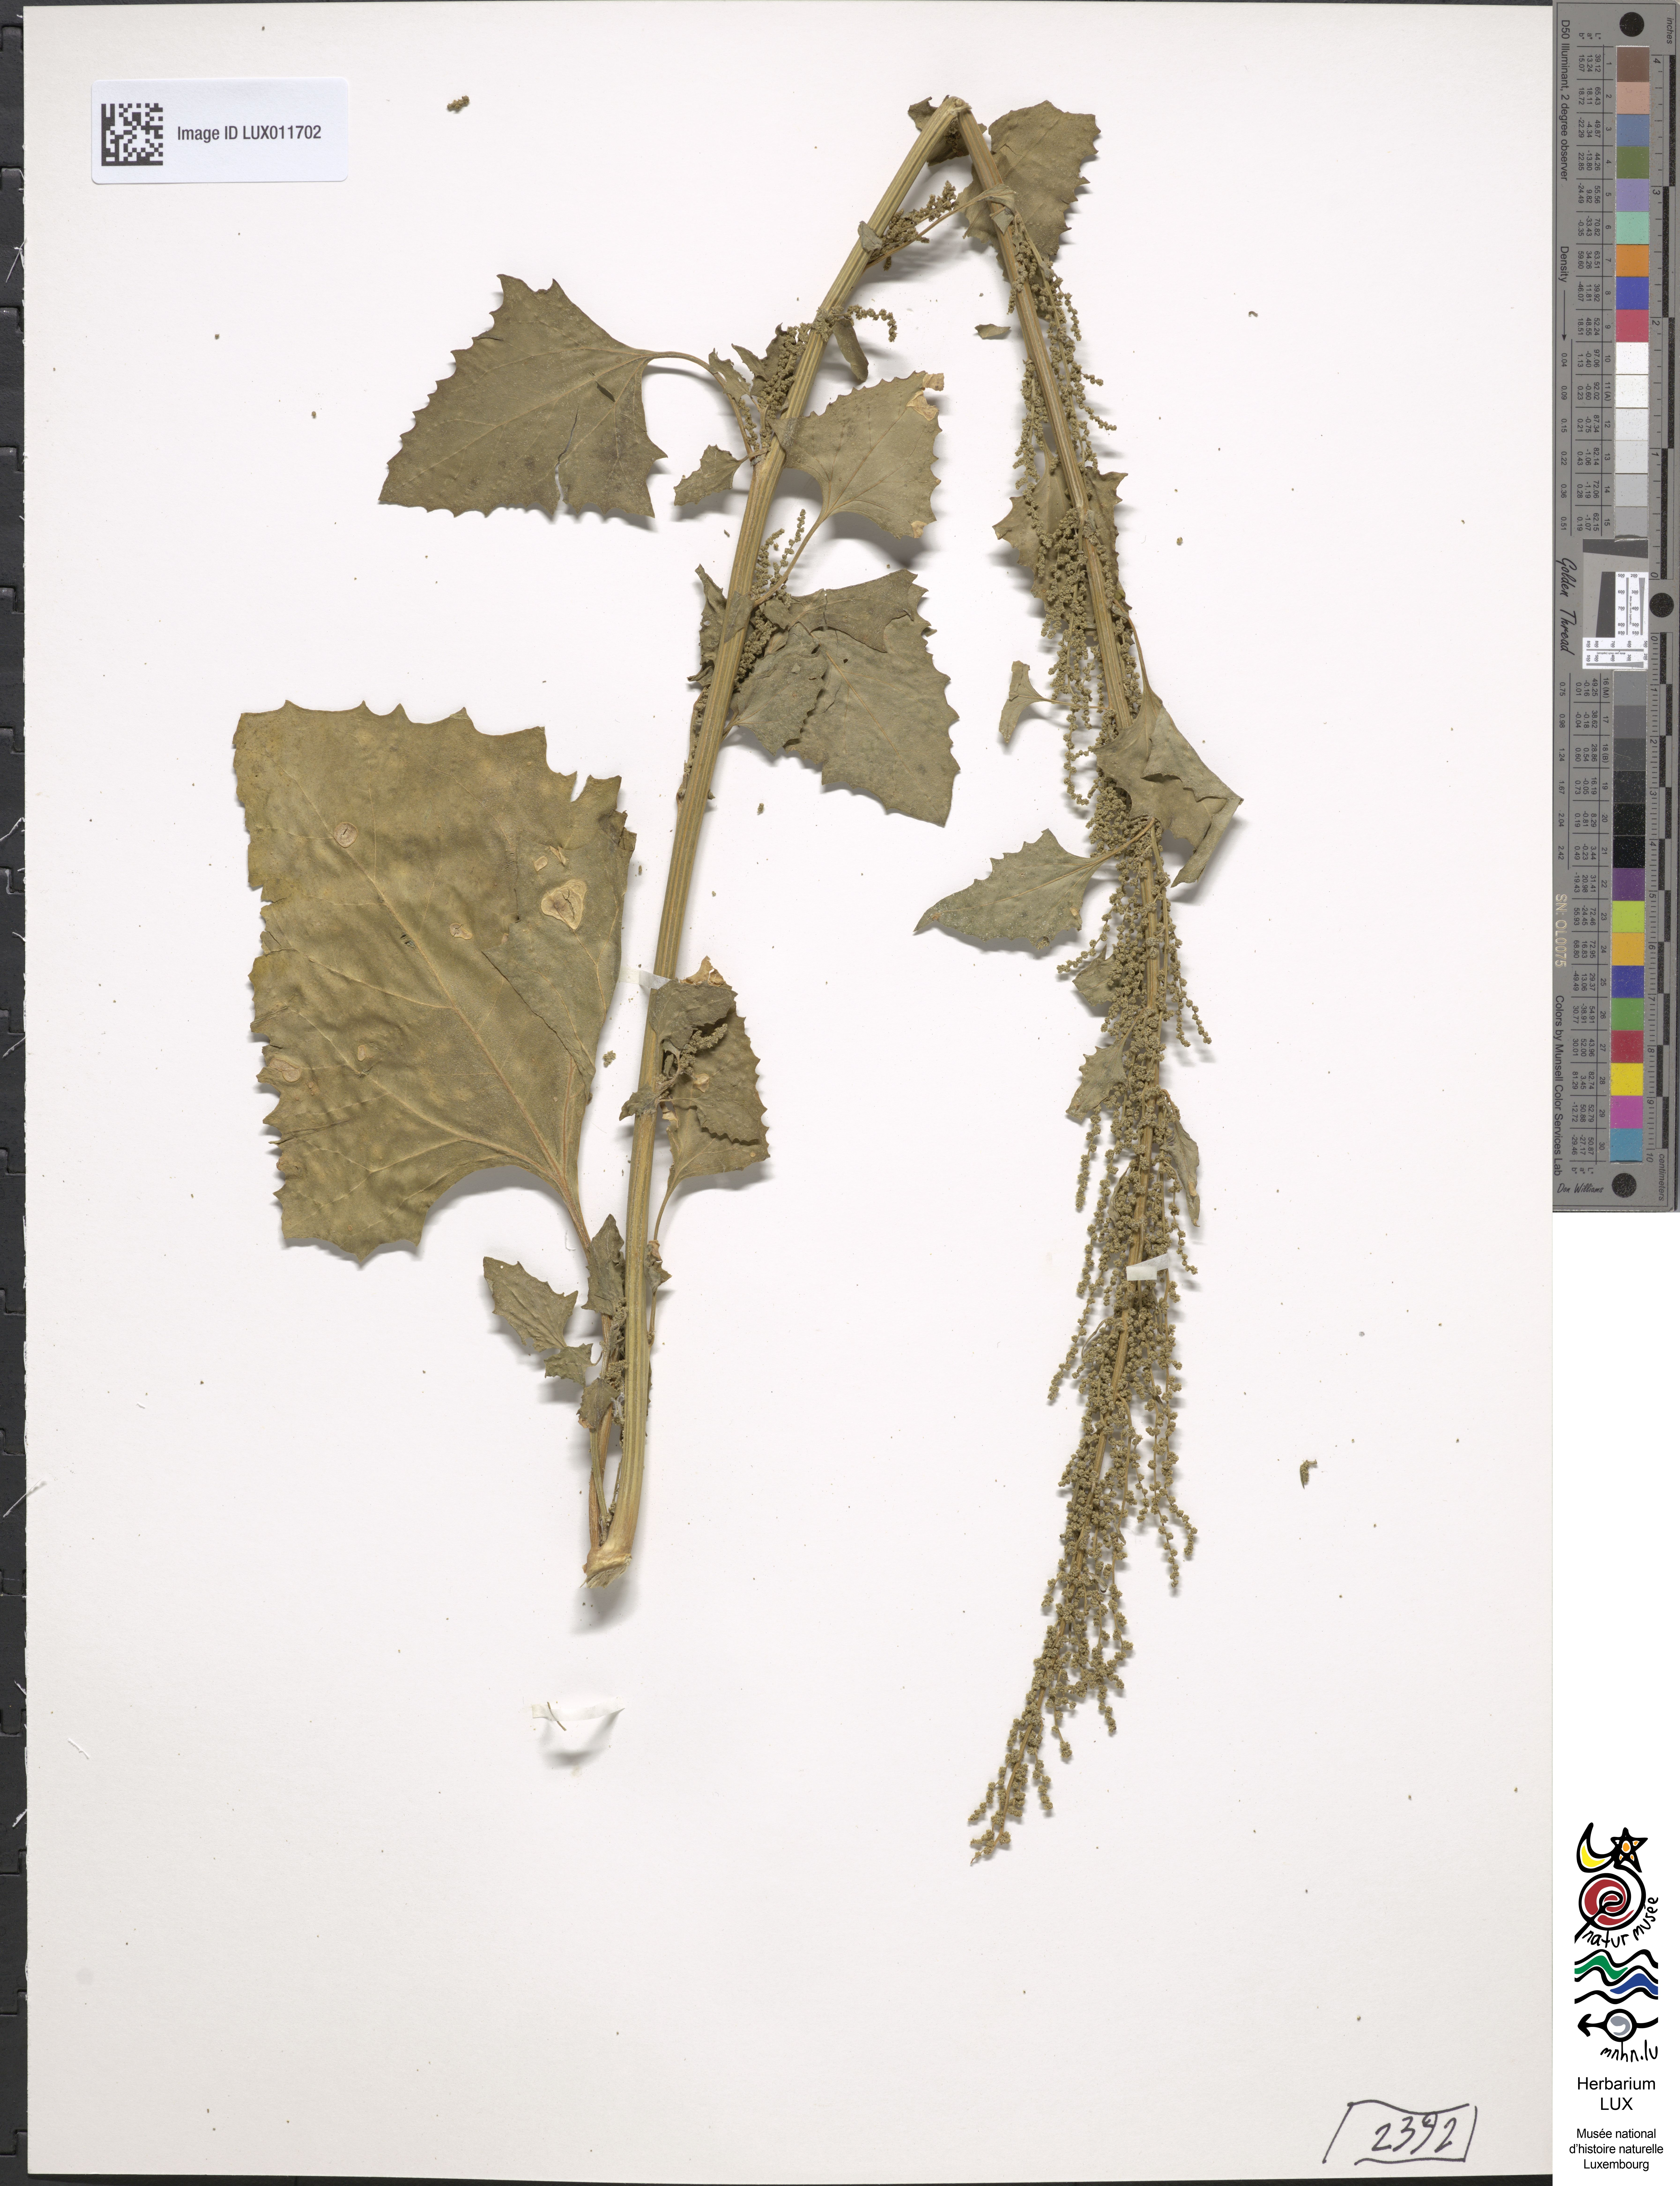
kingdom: Plantae
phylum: Tracheophyta
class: Magnoliopsida
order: Caryophyllales
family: Amaranthaceae
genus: Oxybasis
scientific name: Oxybasis urbica
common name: City goosefoot
